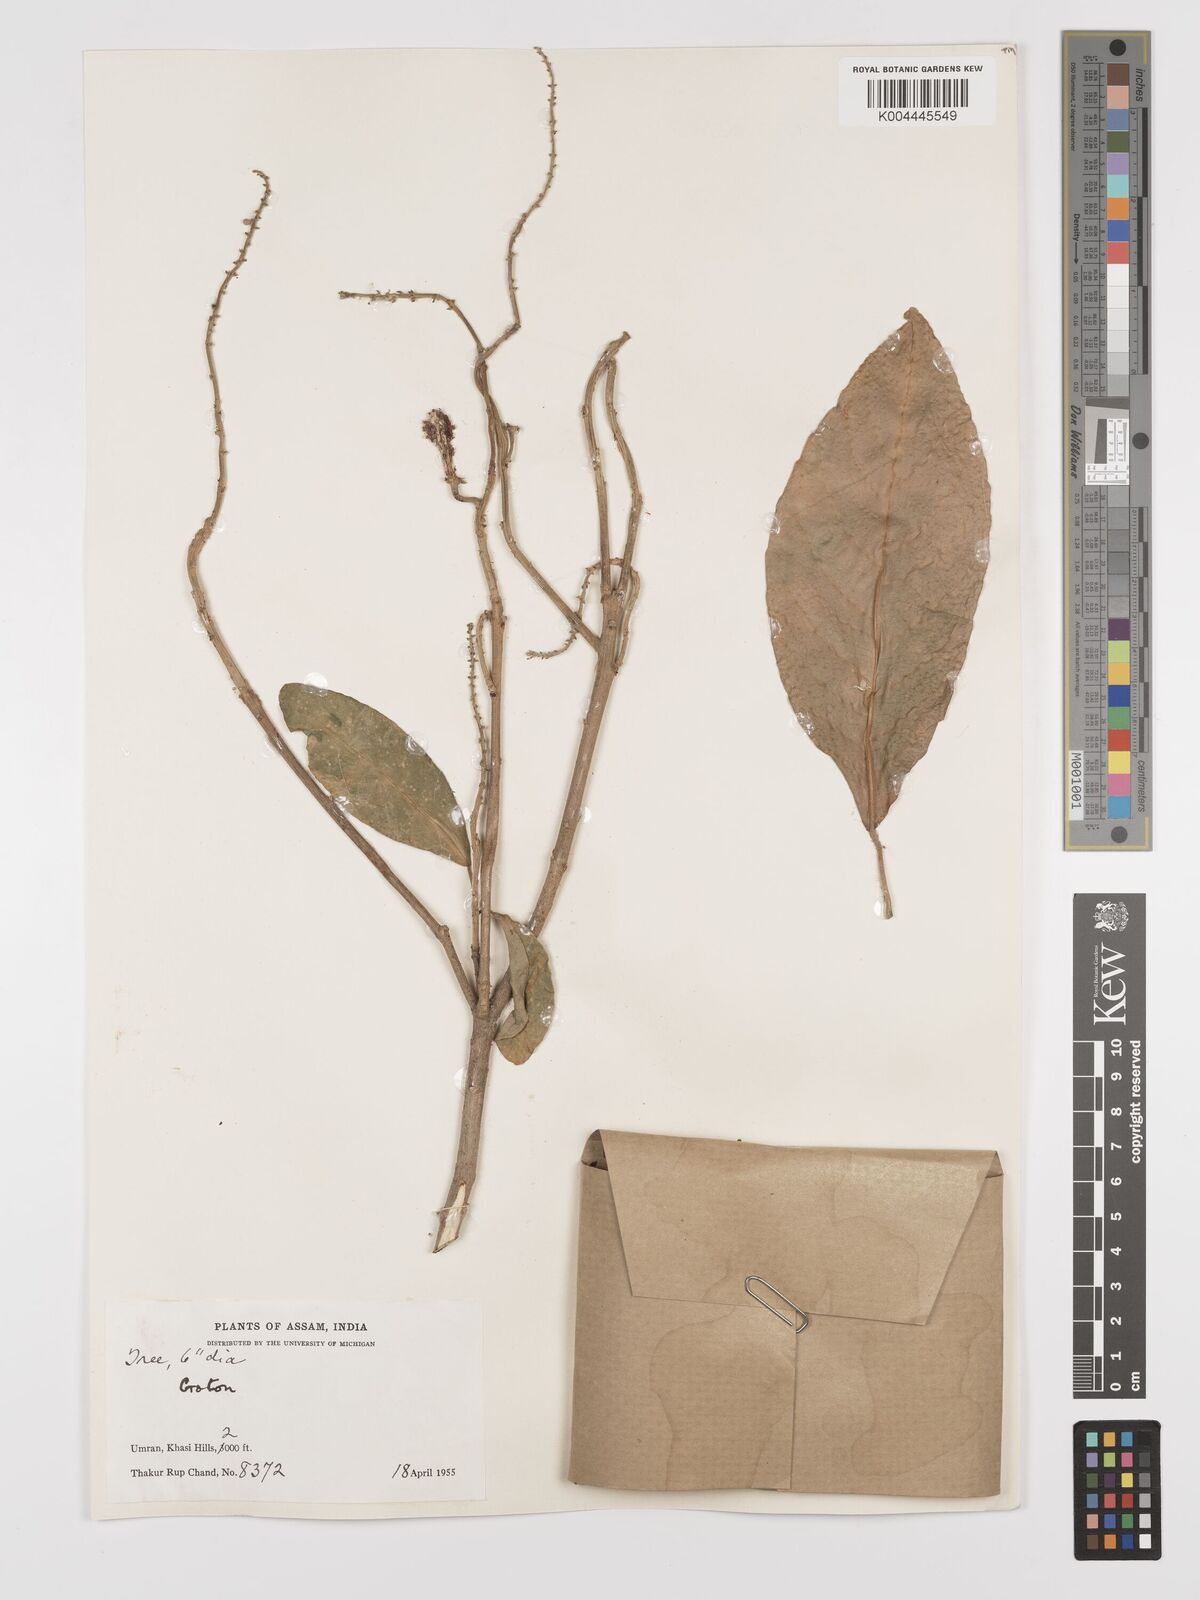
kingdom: Plantae
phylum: Tracheophyta
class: Magnoliopsida
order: Malpighiales
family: Euphorbiaceae
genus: Croton
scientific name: Croton joufra
